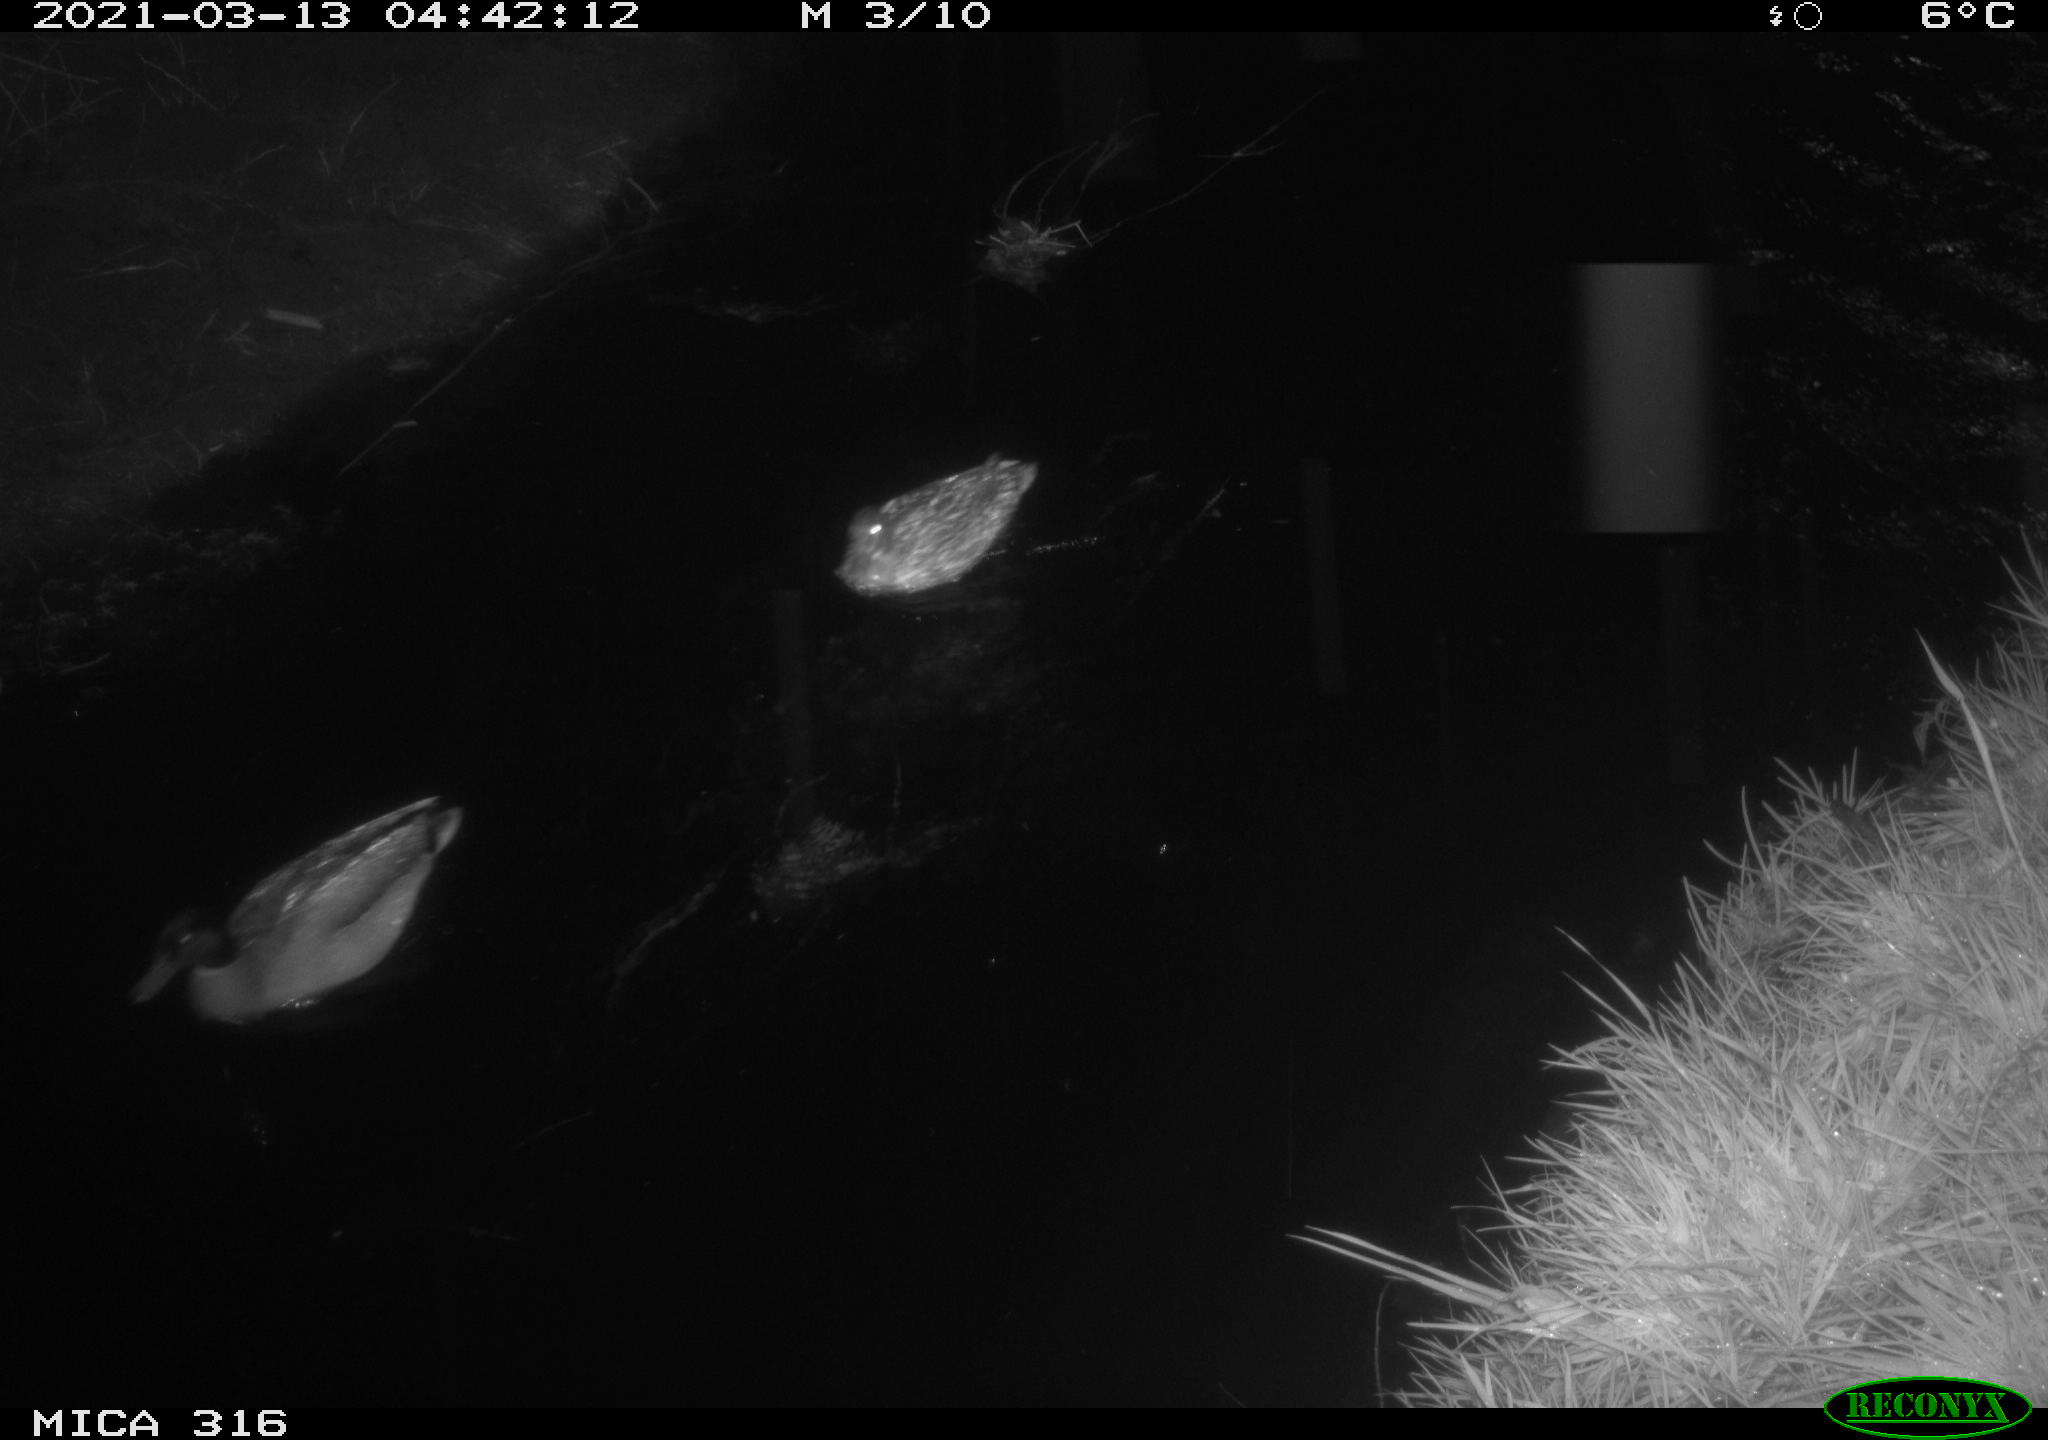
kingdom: Animalia
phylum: Chordata
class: Aves
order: Anseriformes
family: Anatidae
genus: Anas
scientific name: Anas platyrhynchos
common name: Mallard
